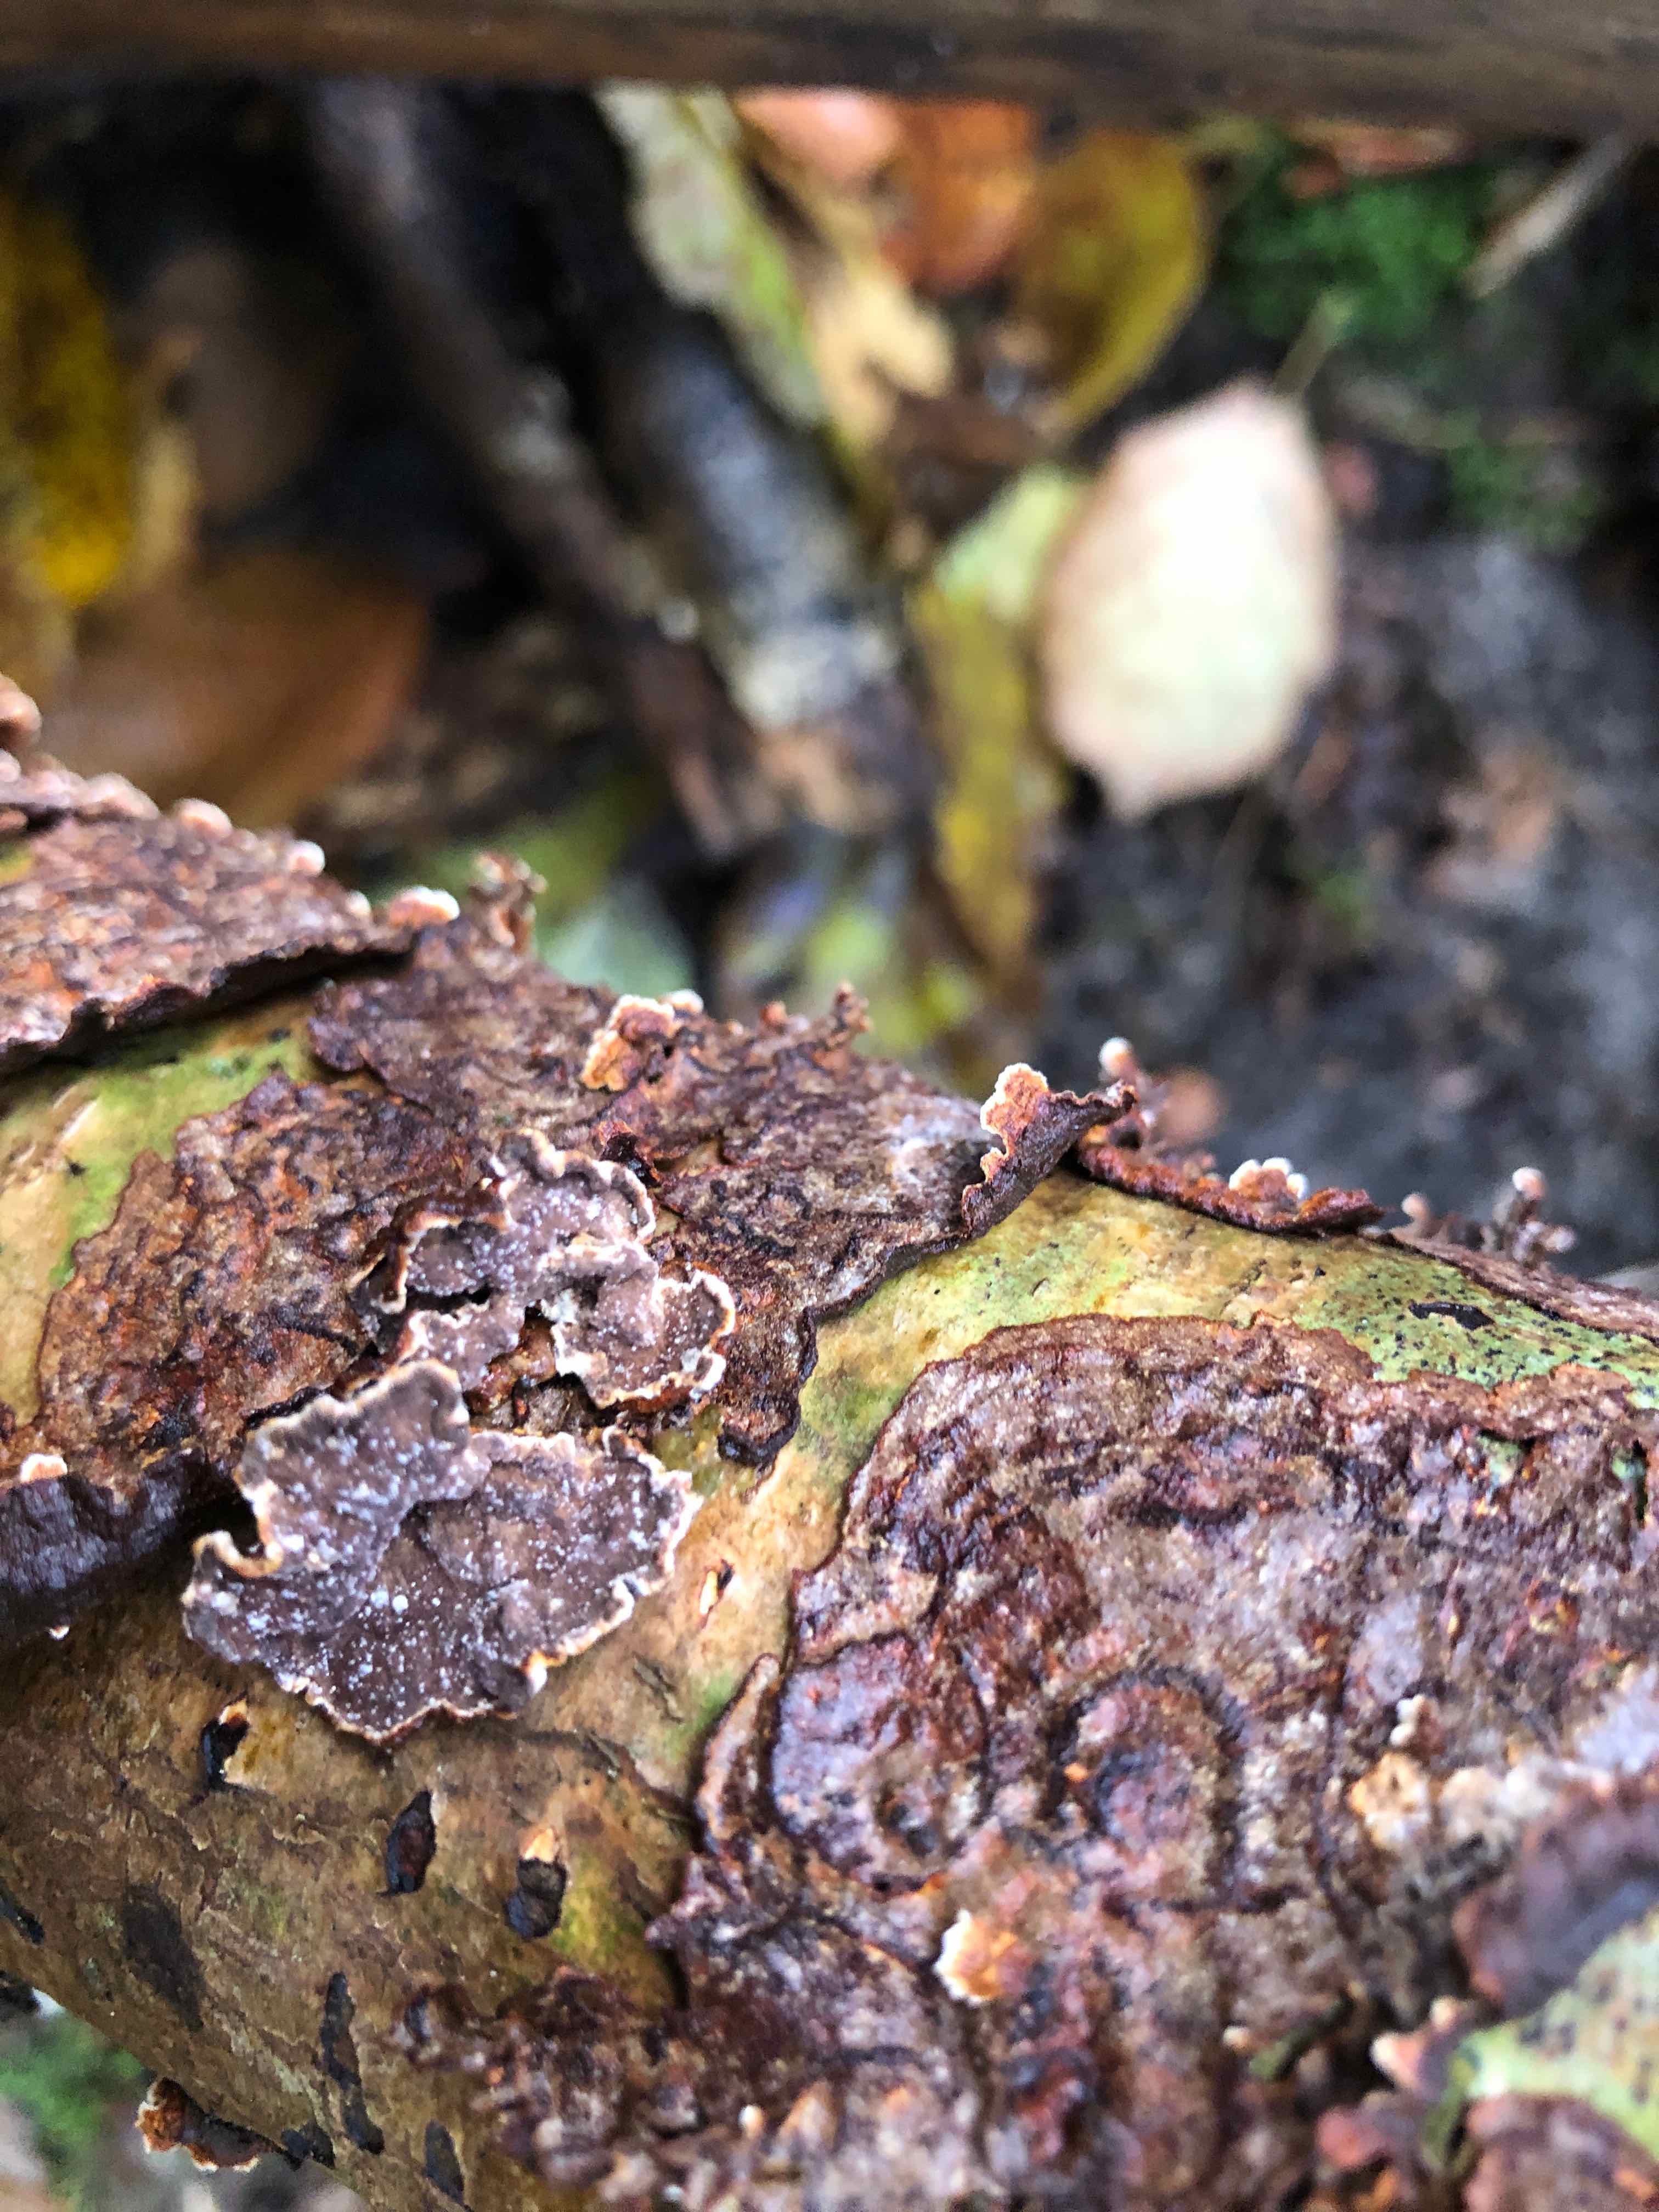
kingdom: Fungi
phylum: Basidiomycota
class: Agaricomycetes
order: Hymenochaetales
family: Hymenochaetaceae
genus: Hydnoporia
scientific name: Hydnoporia tabacina
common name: tobaksbrun ruslædersvamp
